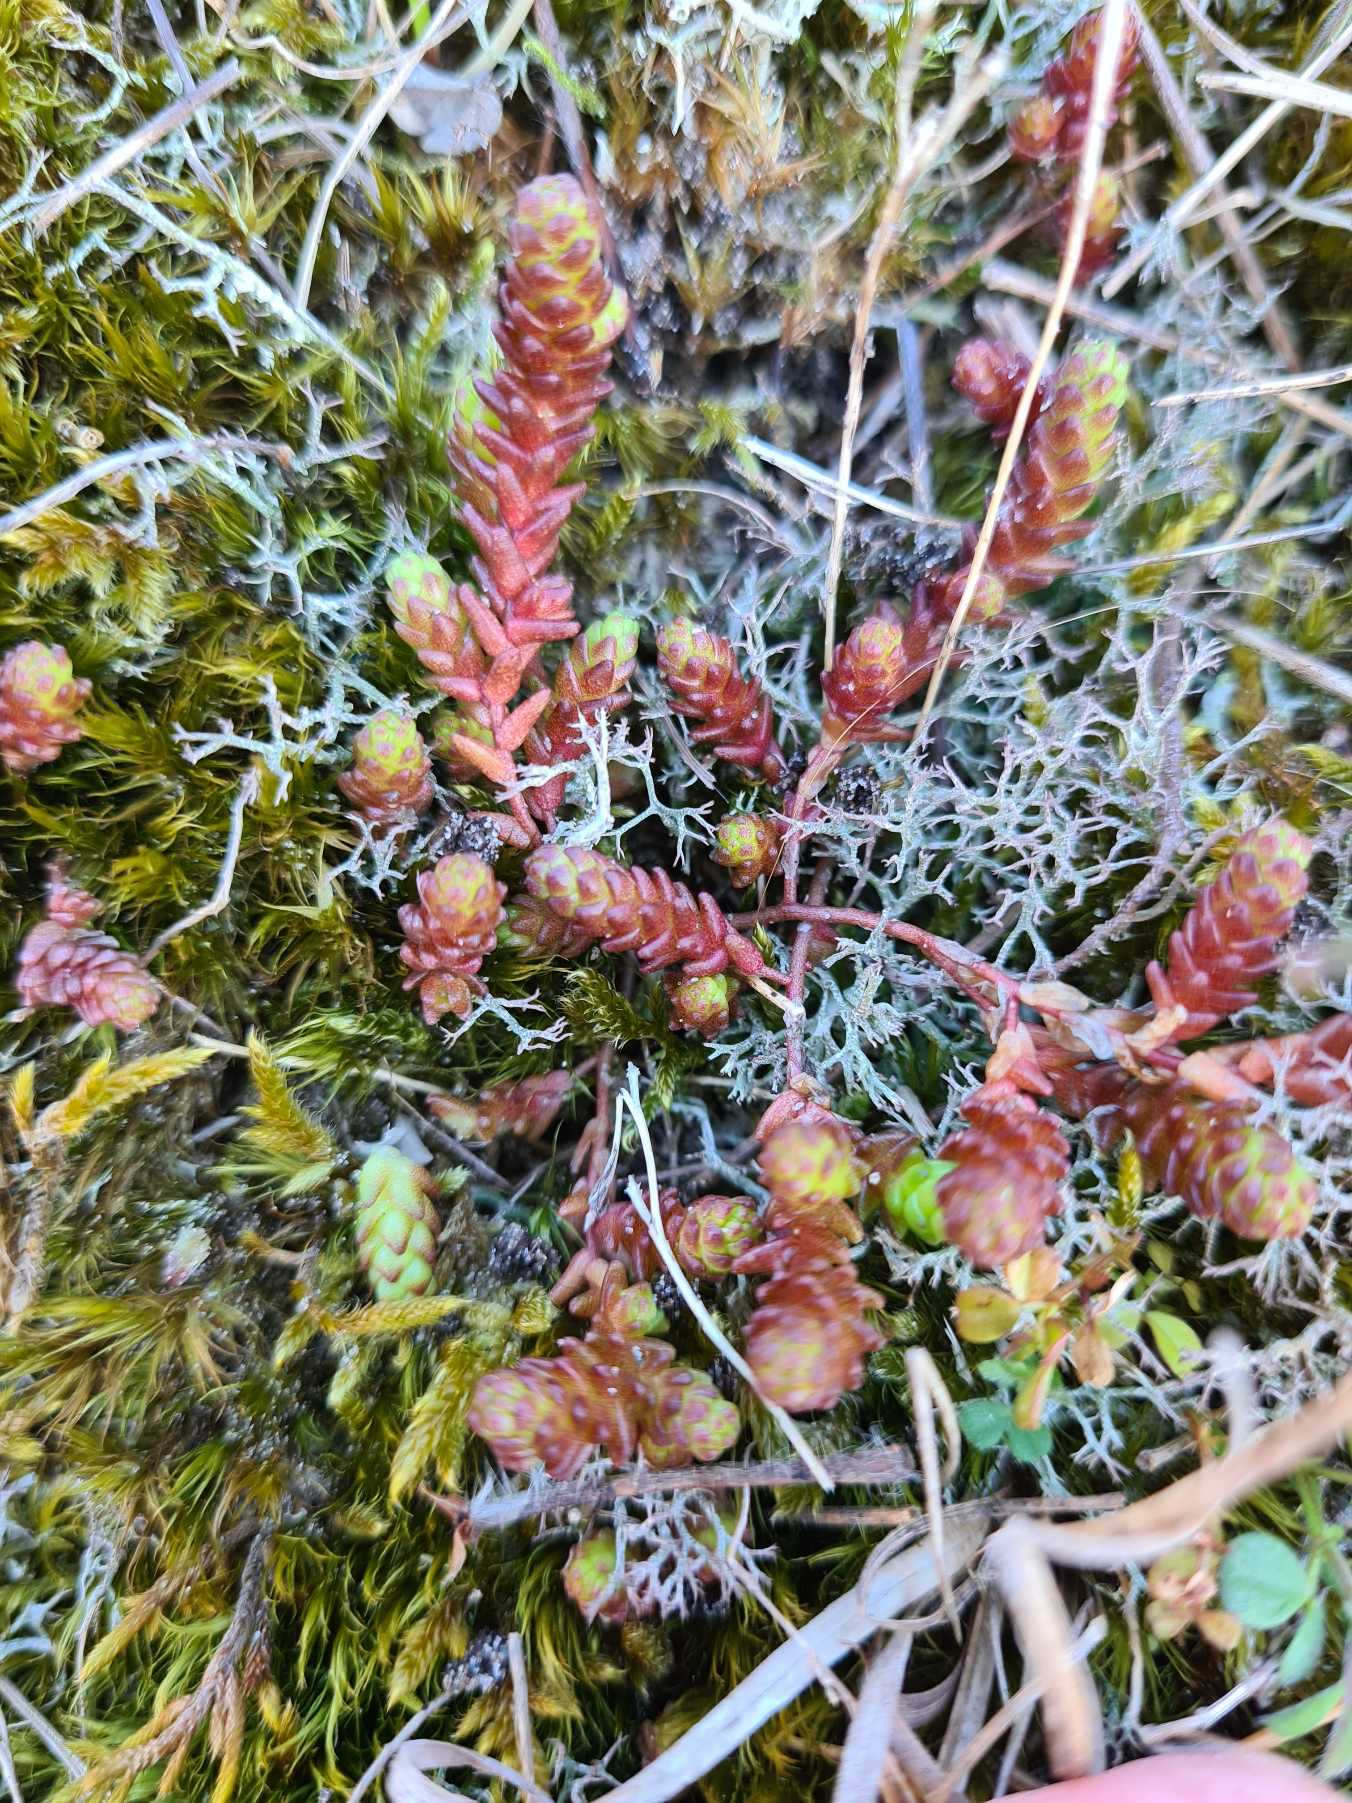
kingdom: Plantae
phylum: Tracheophyta
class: Magnoliopsida
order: Saxifragales
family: Crassulaceae
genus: Sedum
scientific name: Sedum acre
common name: Bidende stenurt
